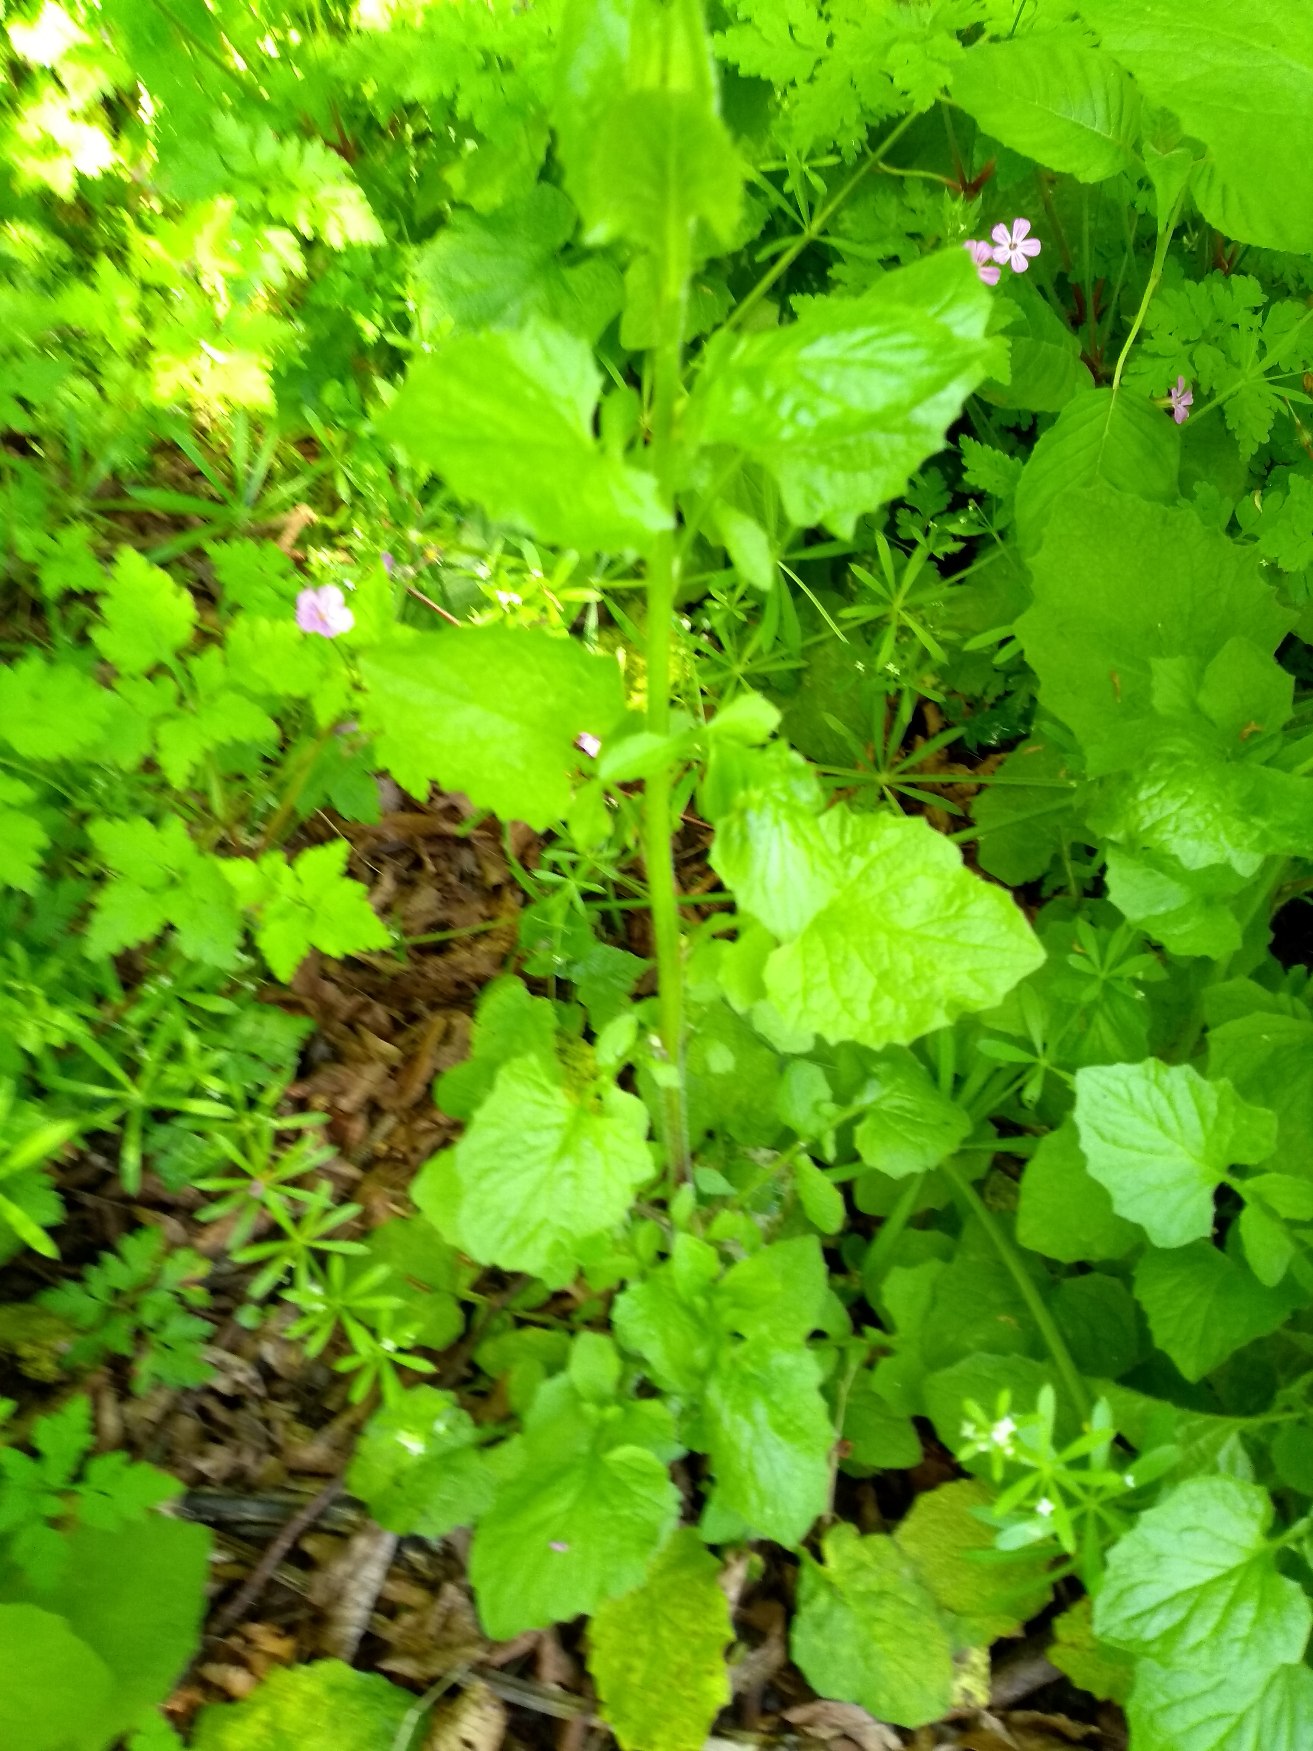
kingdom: Plantae
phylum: Tracheophyta
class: Magnoliopsida
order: Asterales
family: Asteraceae
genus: Lapsana
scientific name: Lapsana communis
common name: Haremad
